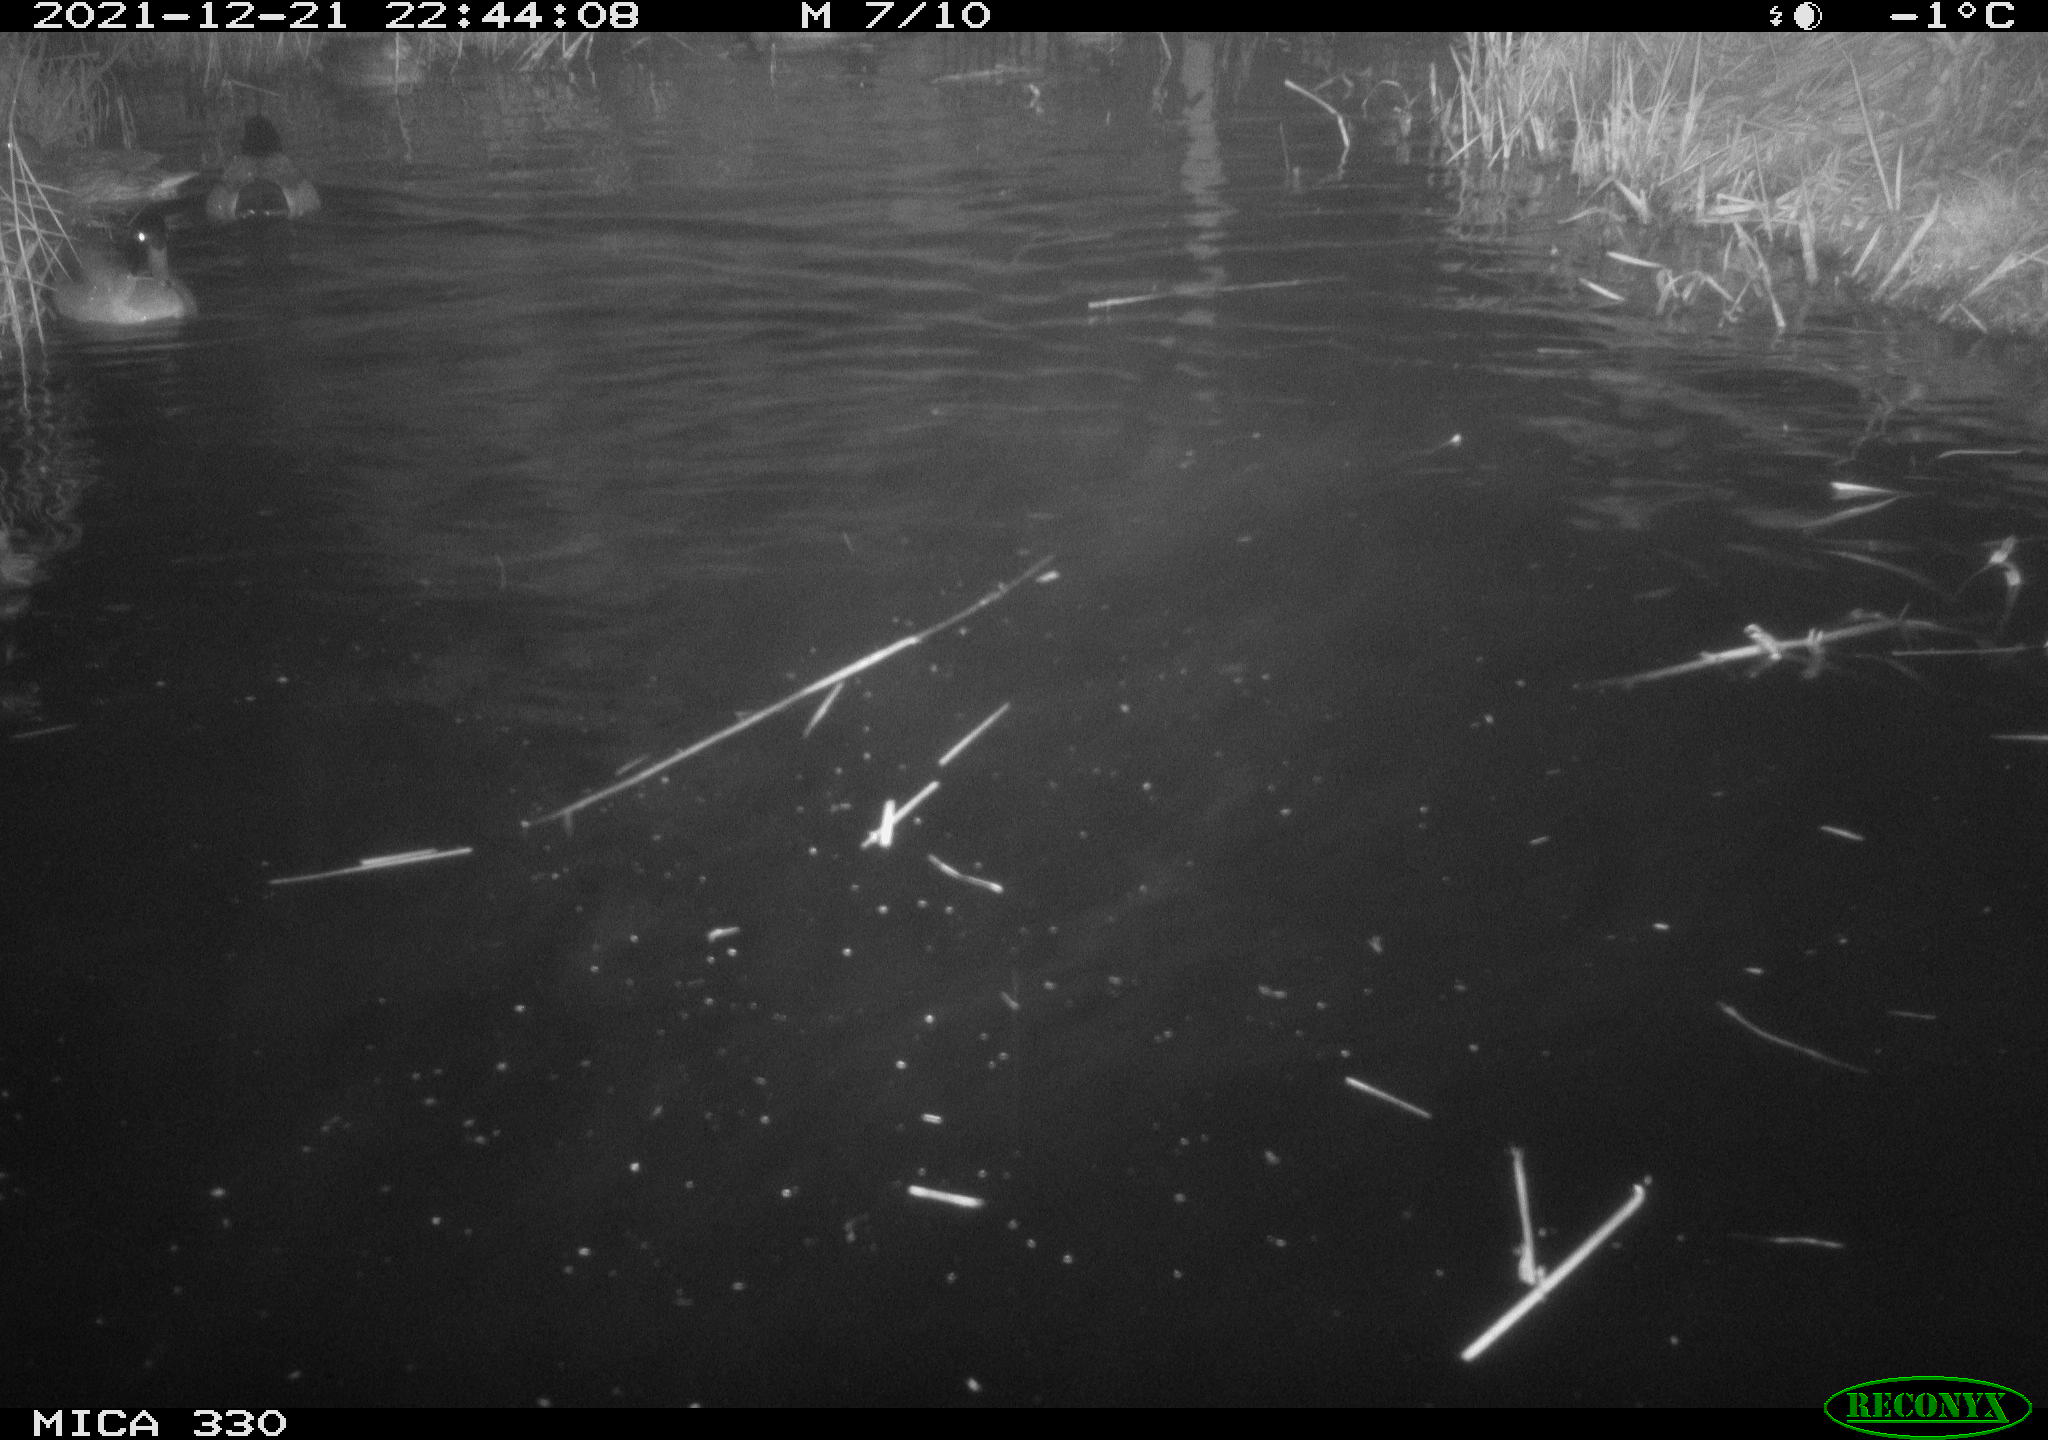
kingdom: Animalia
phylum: Chordata
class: Aves
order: Anseriformes
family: Anatidae
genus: Anas
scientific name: Anas platyrhynchos
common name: Mallard
